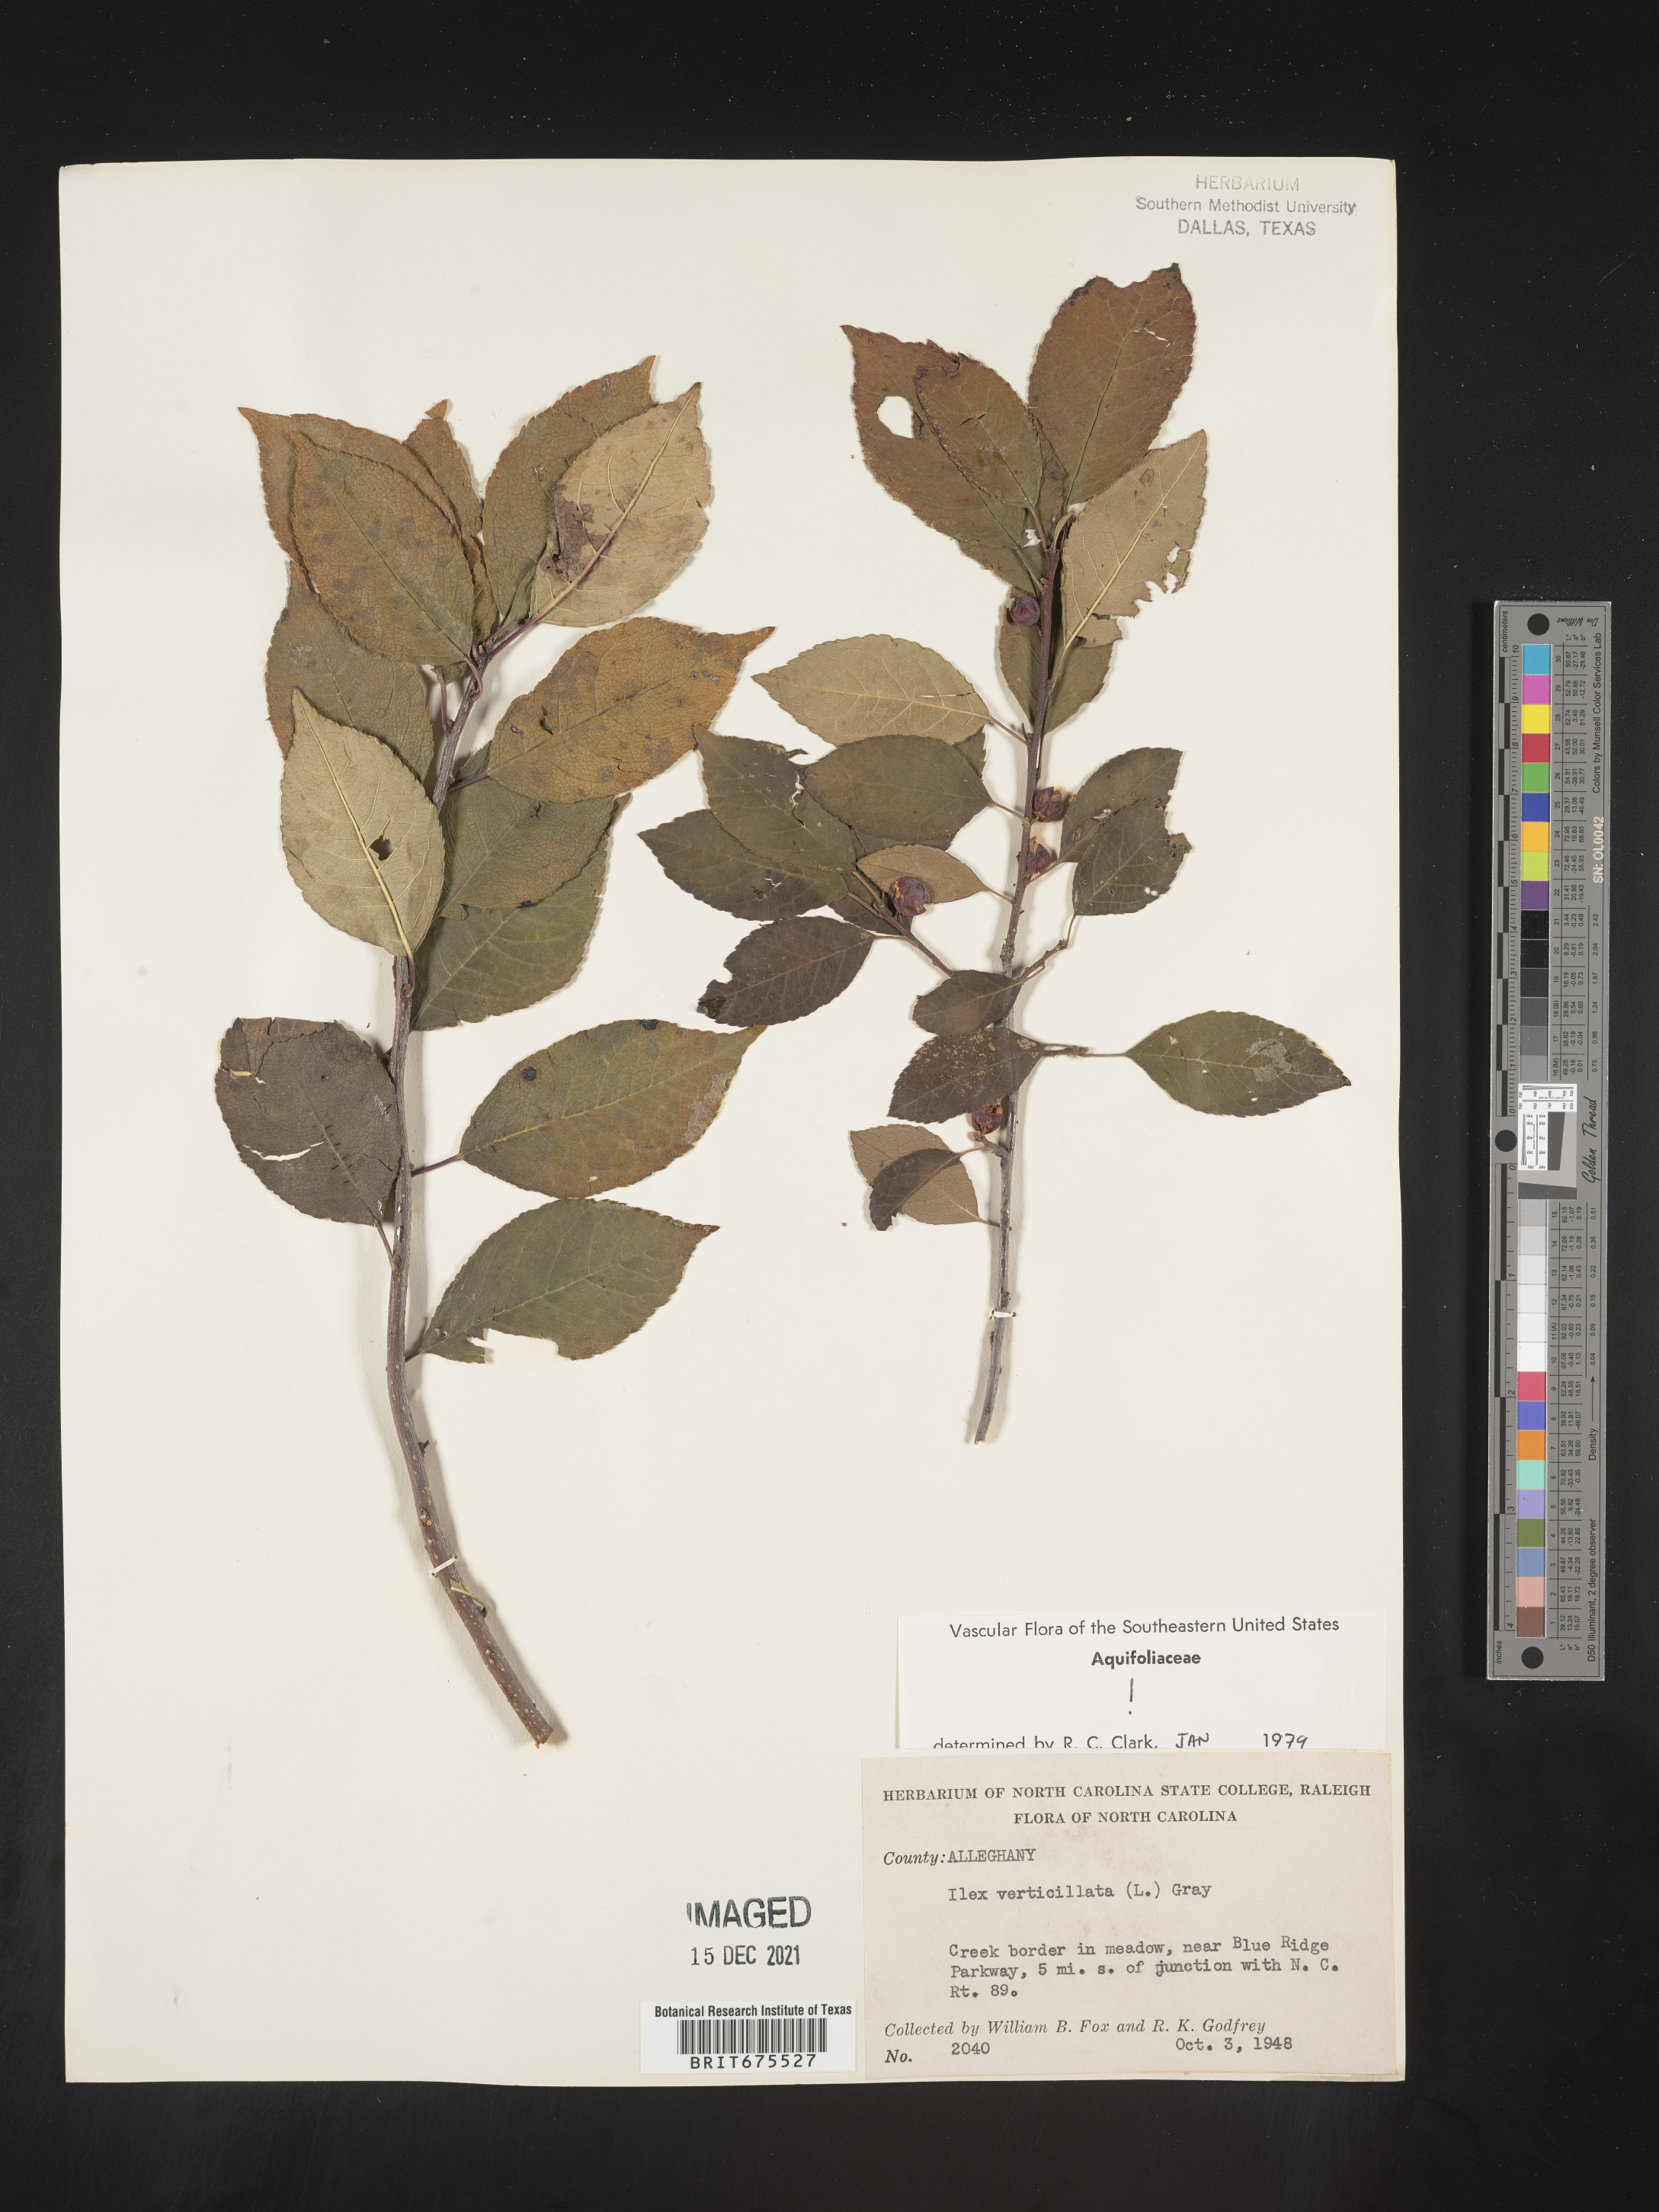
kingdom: Plantae
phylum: Tracheophyta
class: Magnoliopsida
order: Aquifoliales
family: Aquifoliaceae
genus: Ilex
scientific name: Ilex verticillata
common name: Virginia winterberry
